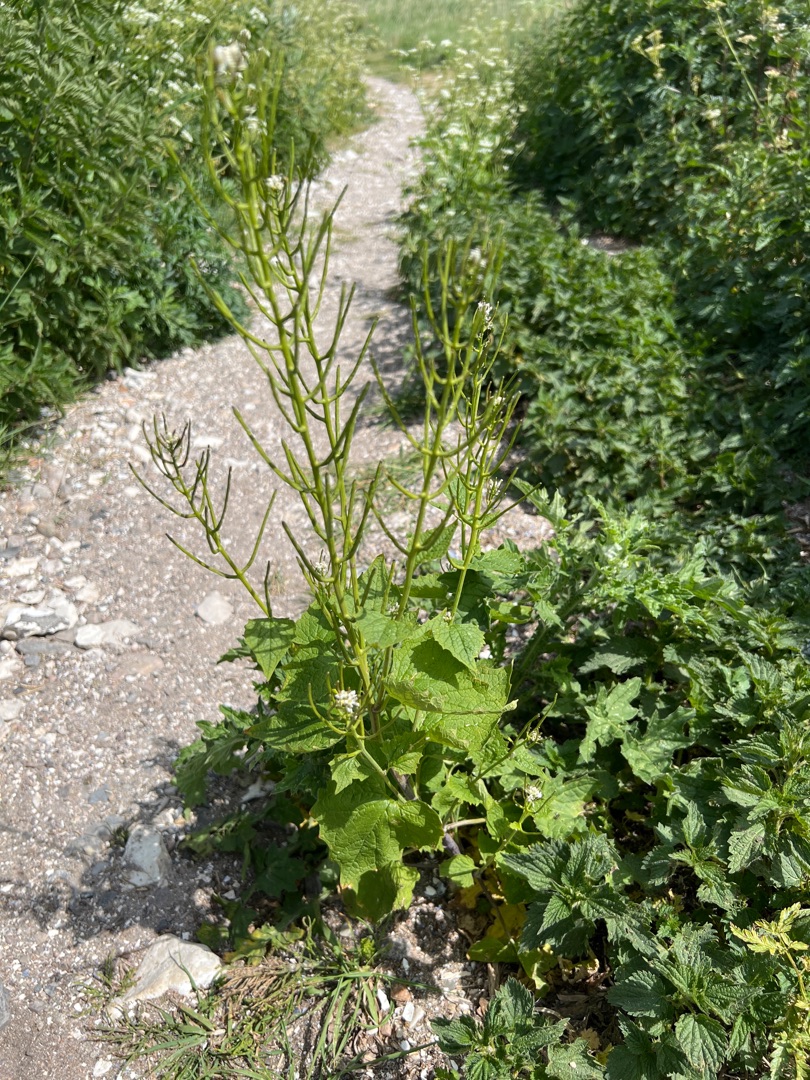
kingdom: Plantae
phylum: Tracheophyta
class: Magnoliopsida
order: Brassicales
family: Brassicaceae
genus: Alliaria
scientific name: Alliaria petiolata
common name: Løgkarse
